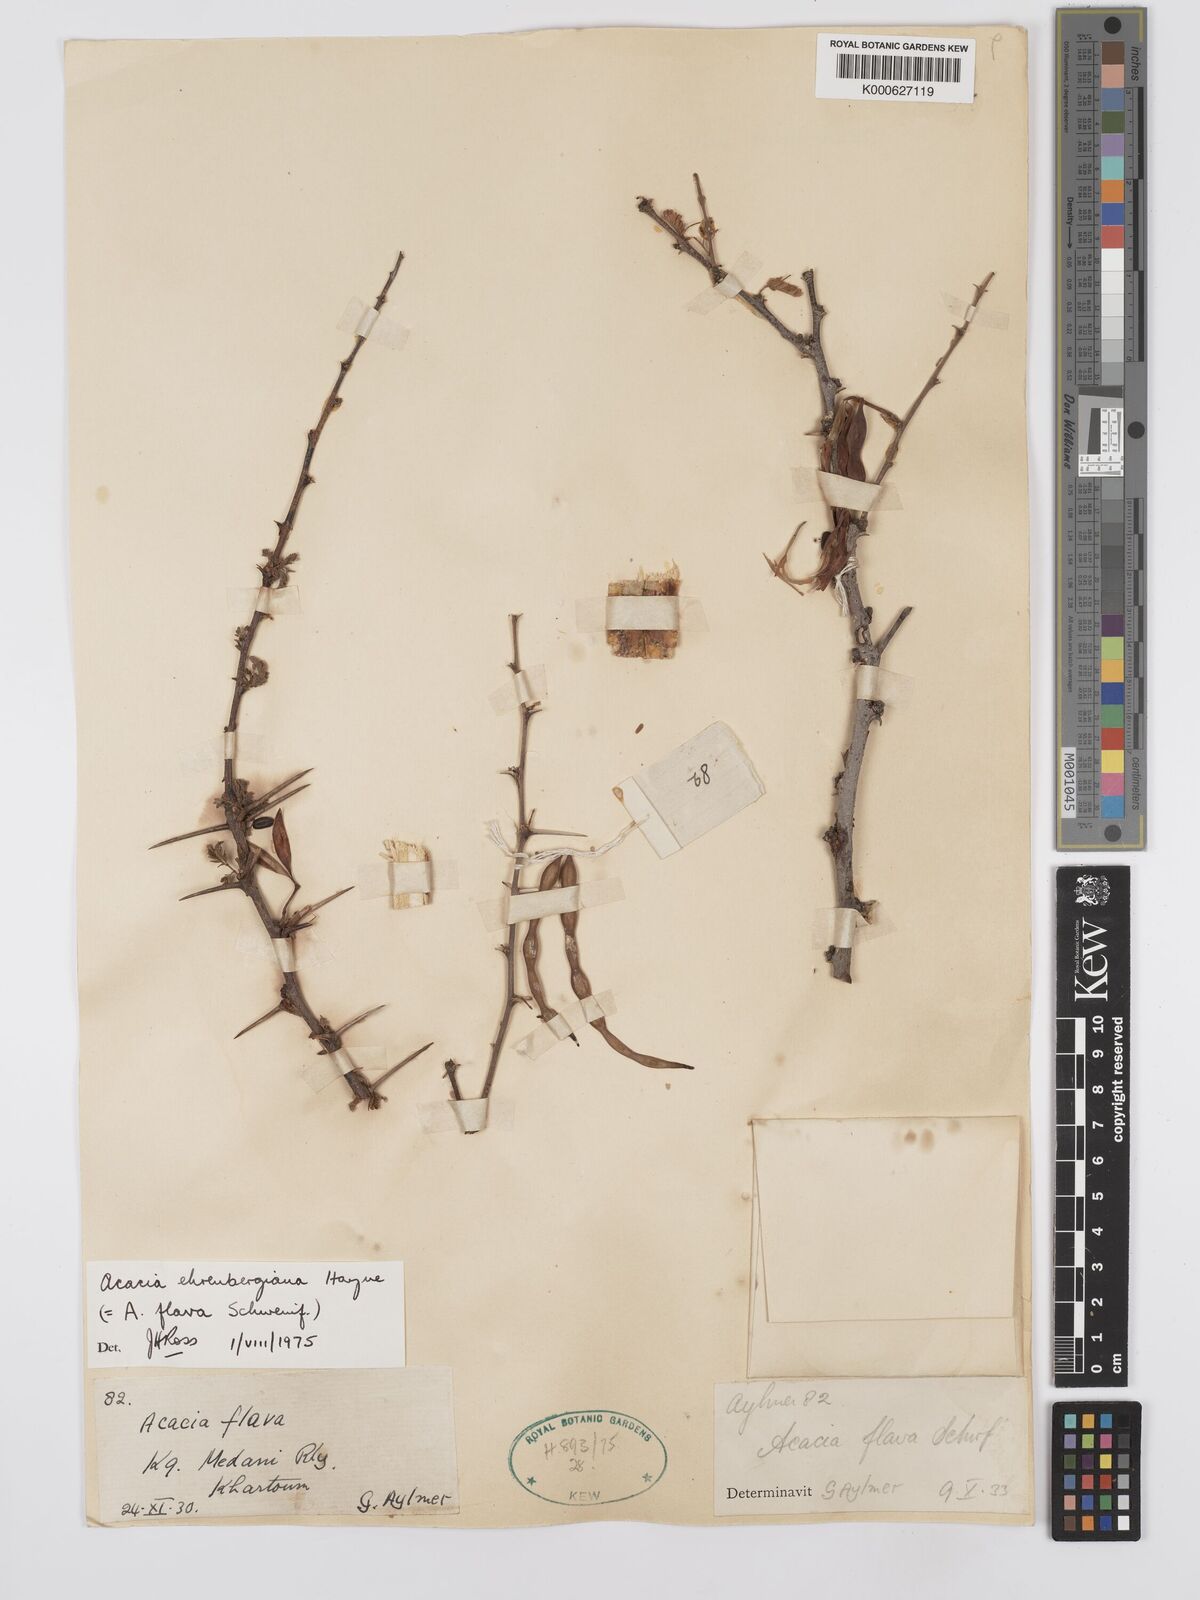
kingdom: Plantae
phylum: Tracheophyta
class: Magnoliopsida
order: Fabales
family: Fabaceae
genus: Vachellia
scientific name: Vachellia flava
